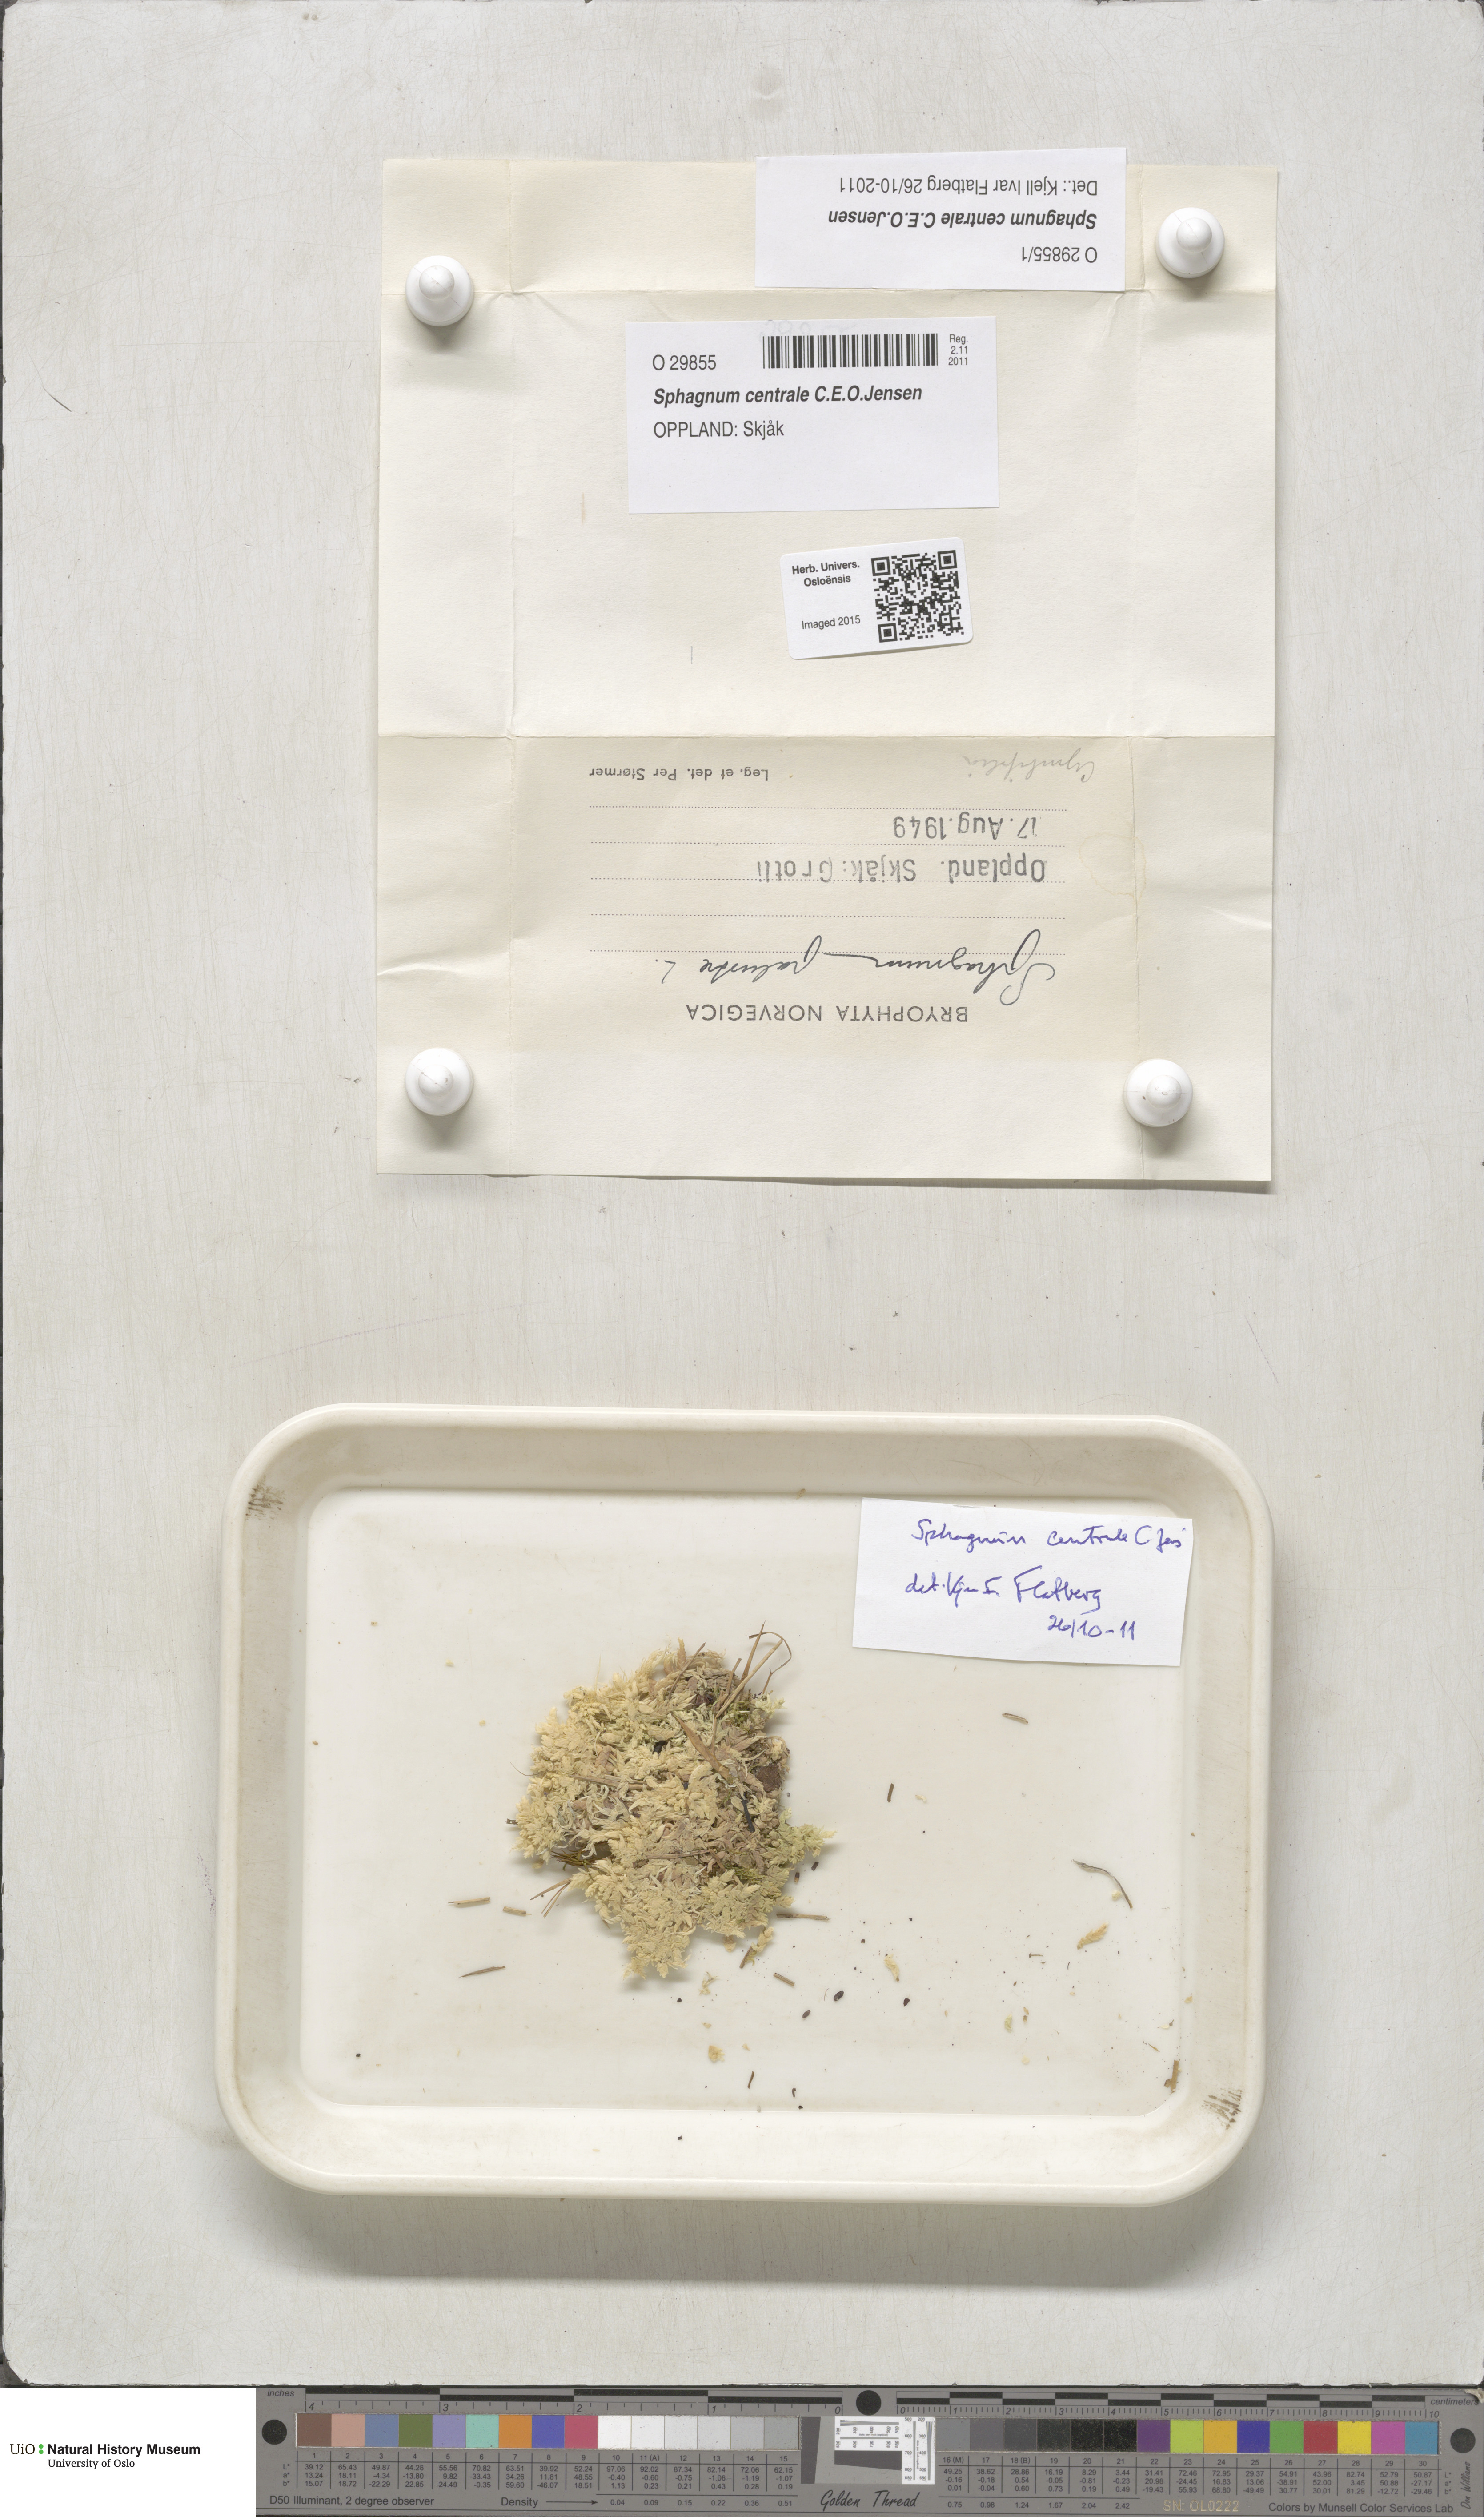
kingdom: Plantae
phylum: Bryophyta
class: Sphagnopsida
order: Sphagnales
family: Sphagnaceae
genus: Sphagnum
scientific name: Sphagnum centrale
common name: Central peat moss
